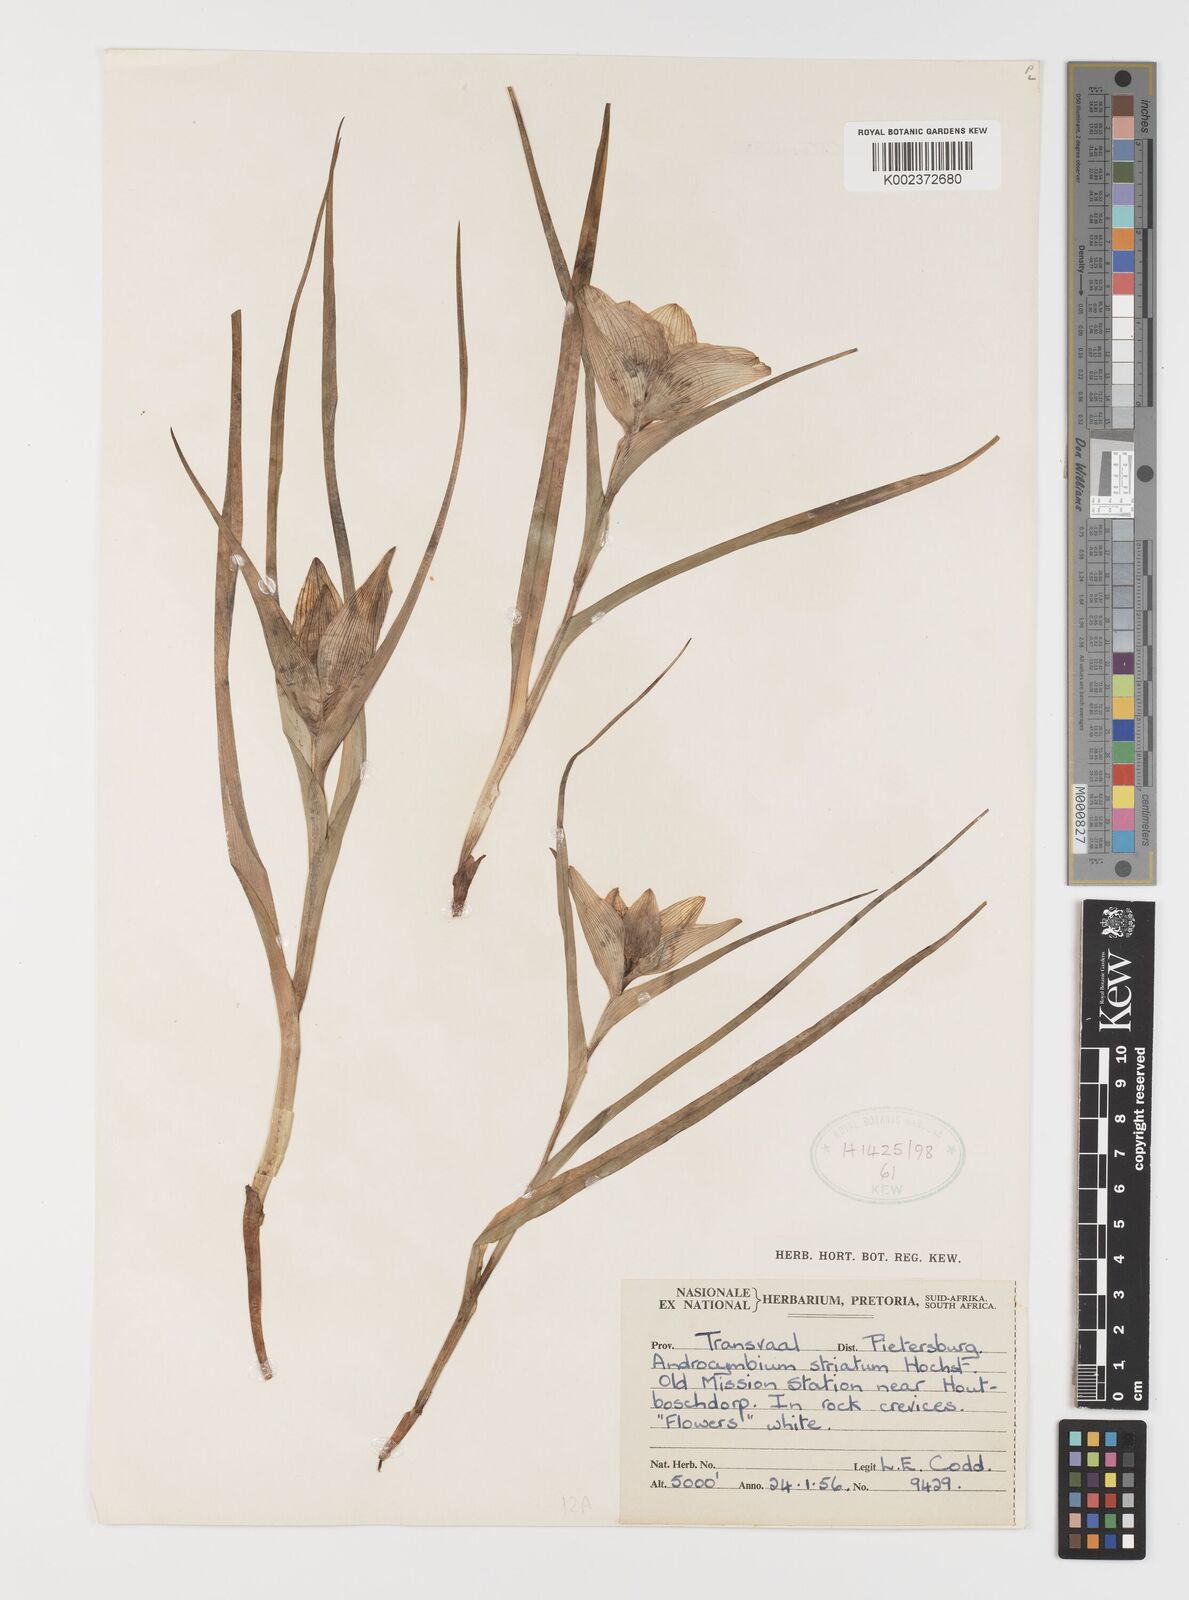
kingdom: Plantae
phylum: Tracheophyta
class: Liliopsida
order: Liliales
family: Colchicaceae
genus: Colchicum
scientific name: Colchicum striatum
